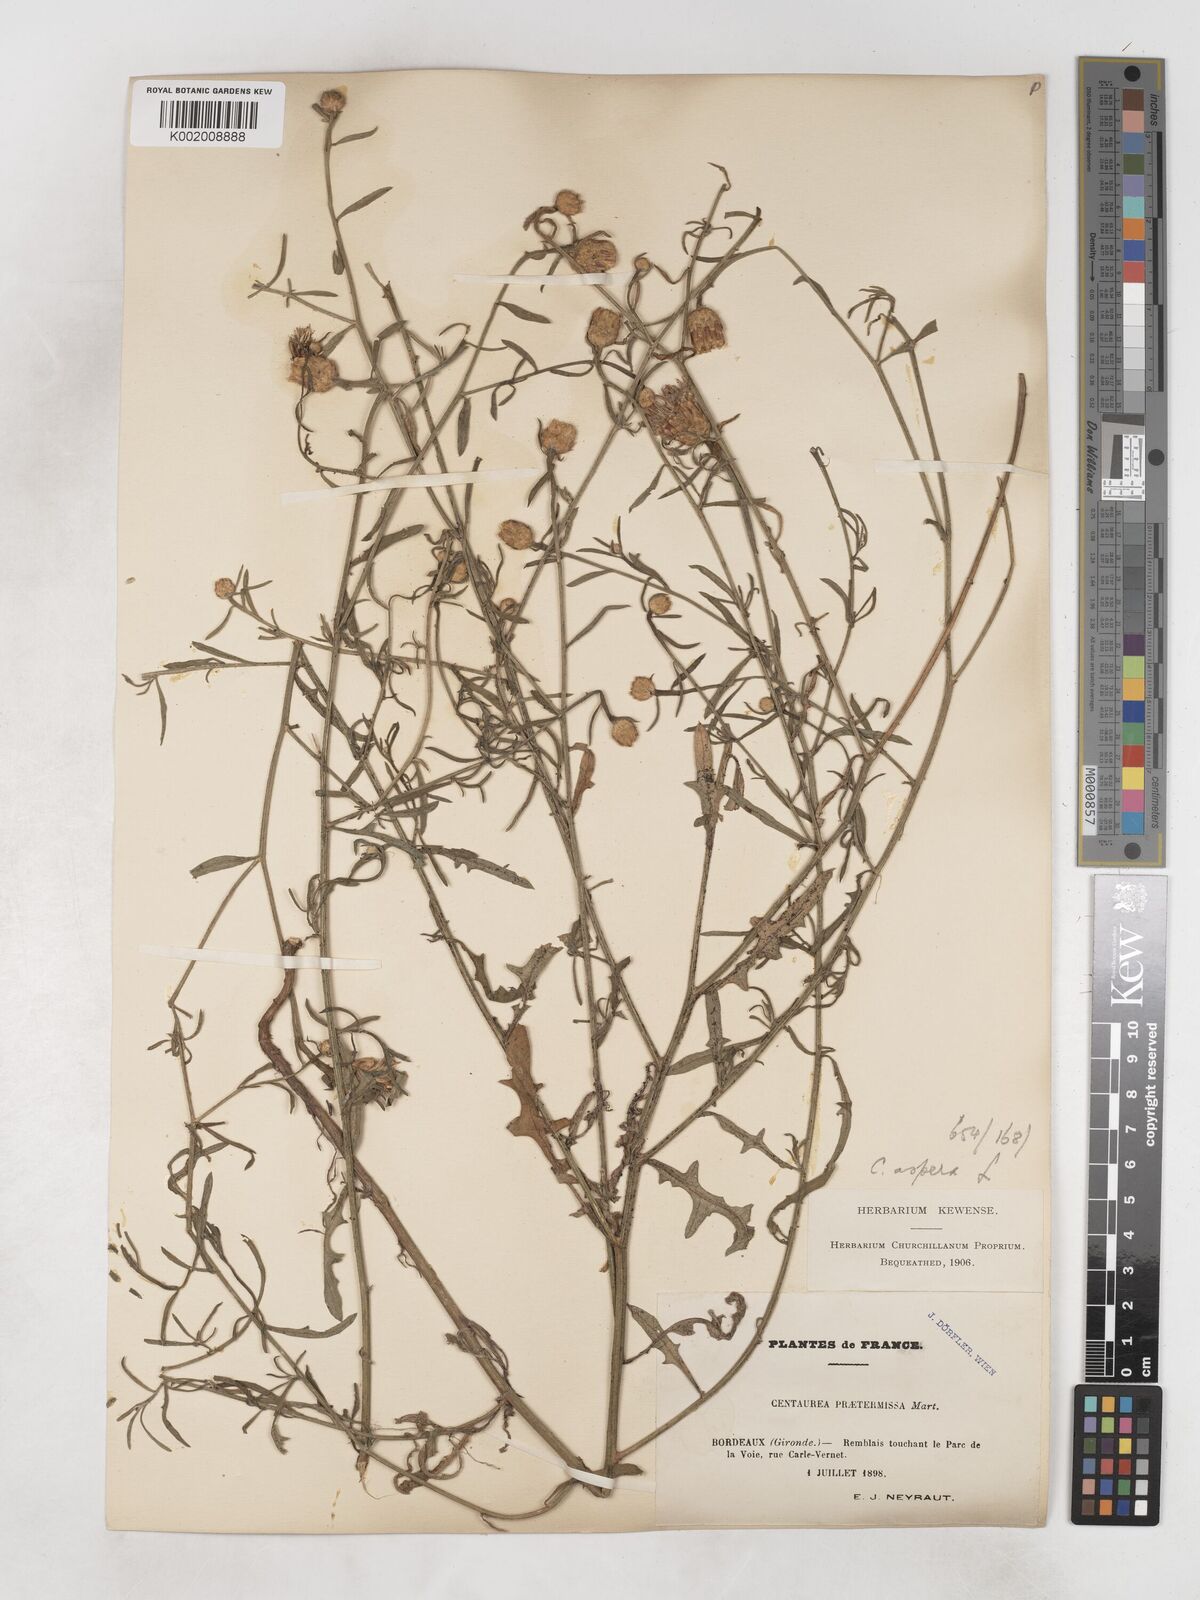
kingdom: Plantae
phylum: Tracheophyta
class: Magnoliopsida
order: Asterales
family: Asteraceae
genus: Centaurea
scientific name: Centaurea aspera
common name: Rough star-thistle
